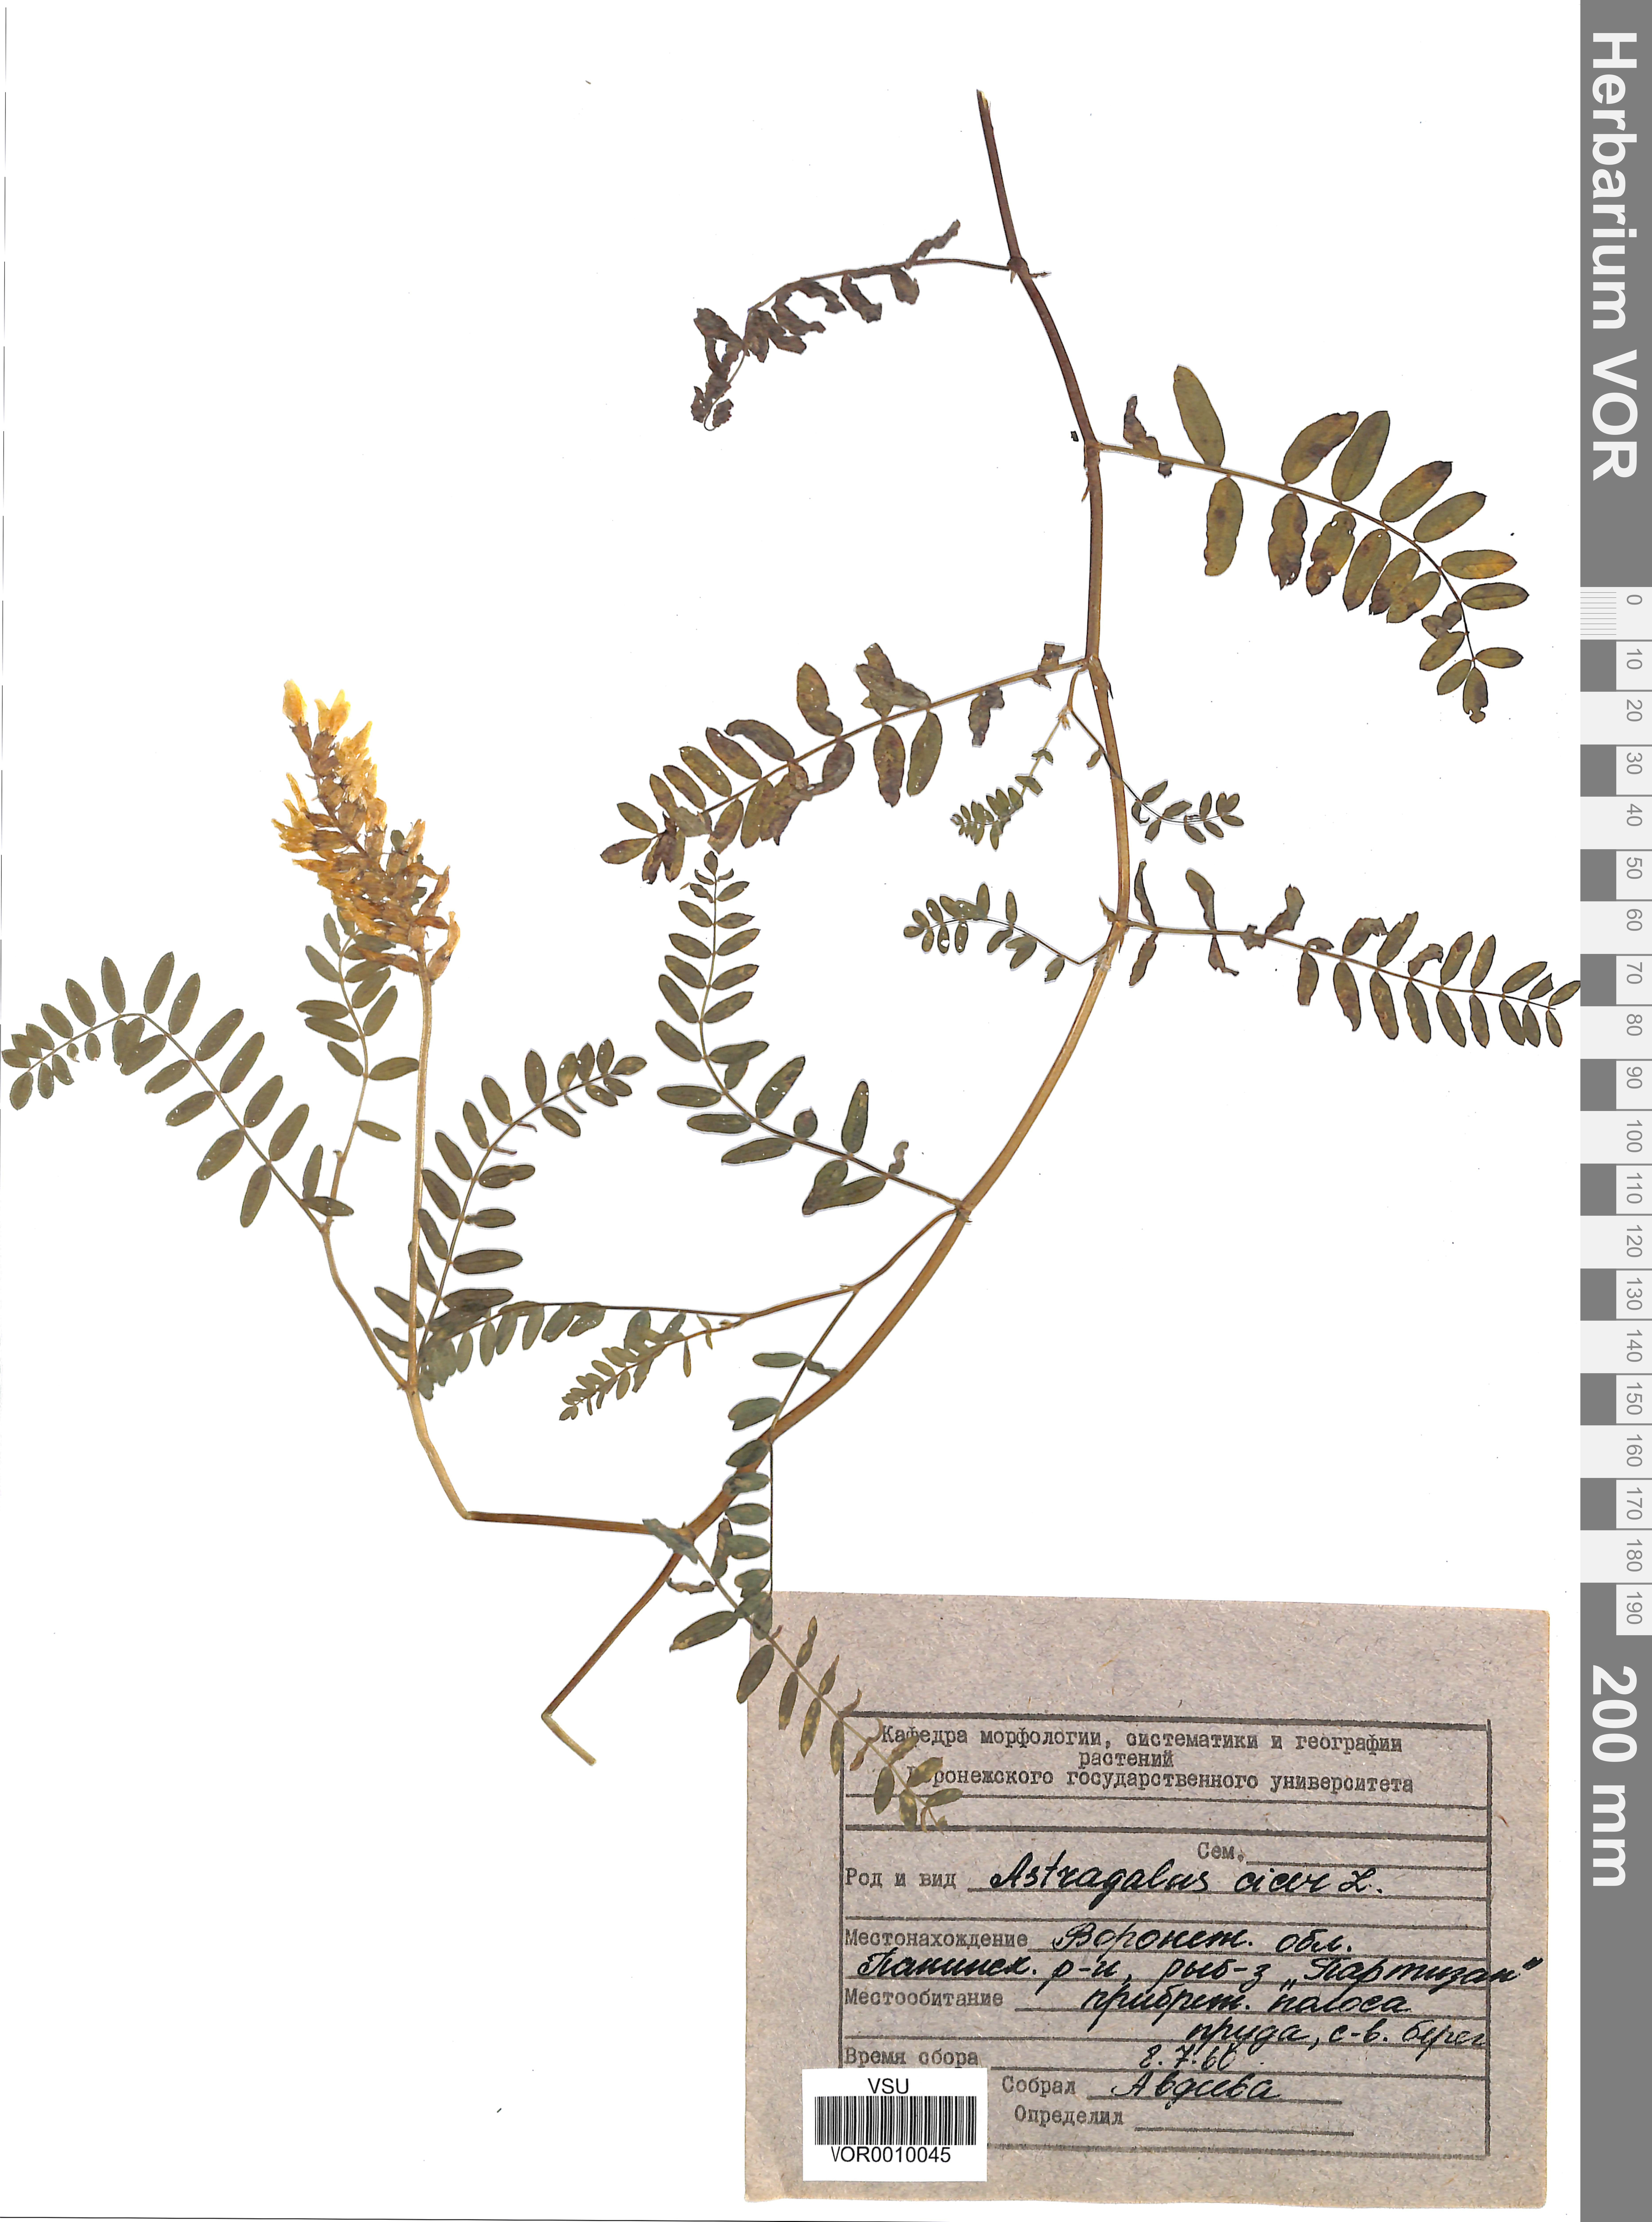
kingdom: Plantae
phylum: Tracheophyta
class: Magnoliopsida
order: Fabales
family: Fabaceae
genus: Astragalus
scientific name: Astragalus cicer
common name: Chick-pea milk-vetch
